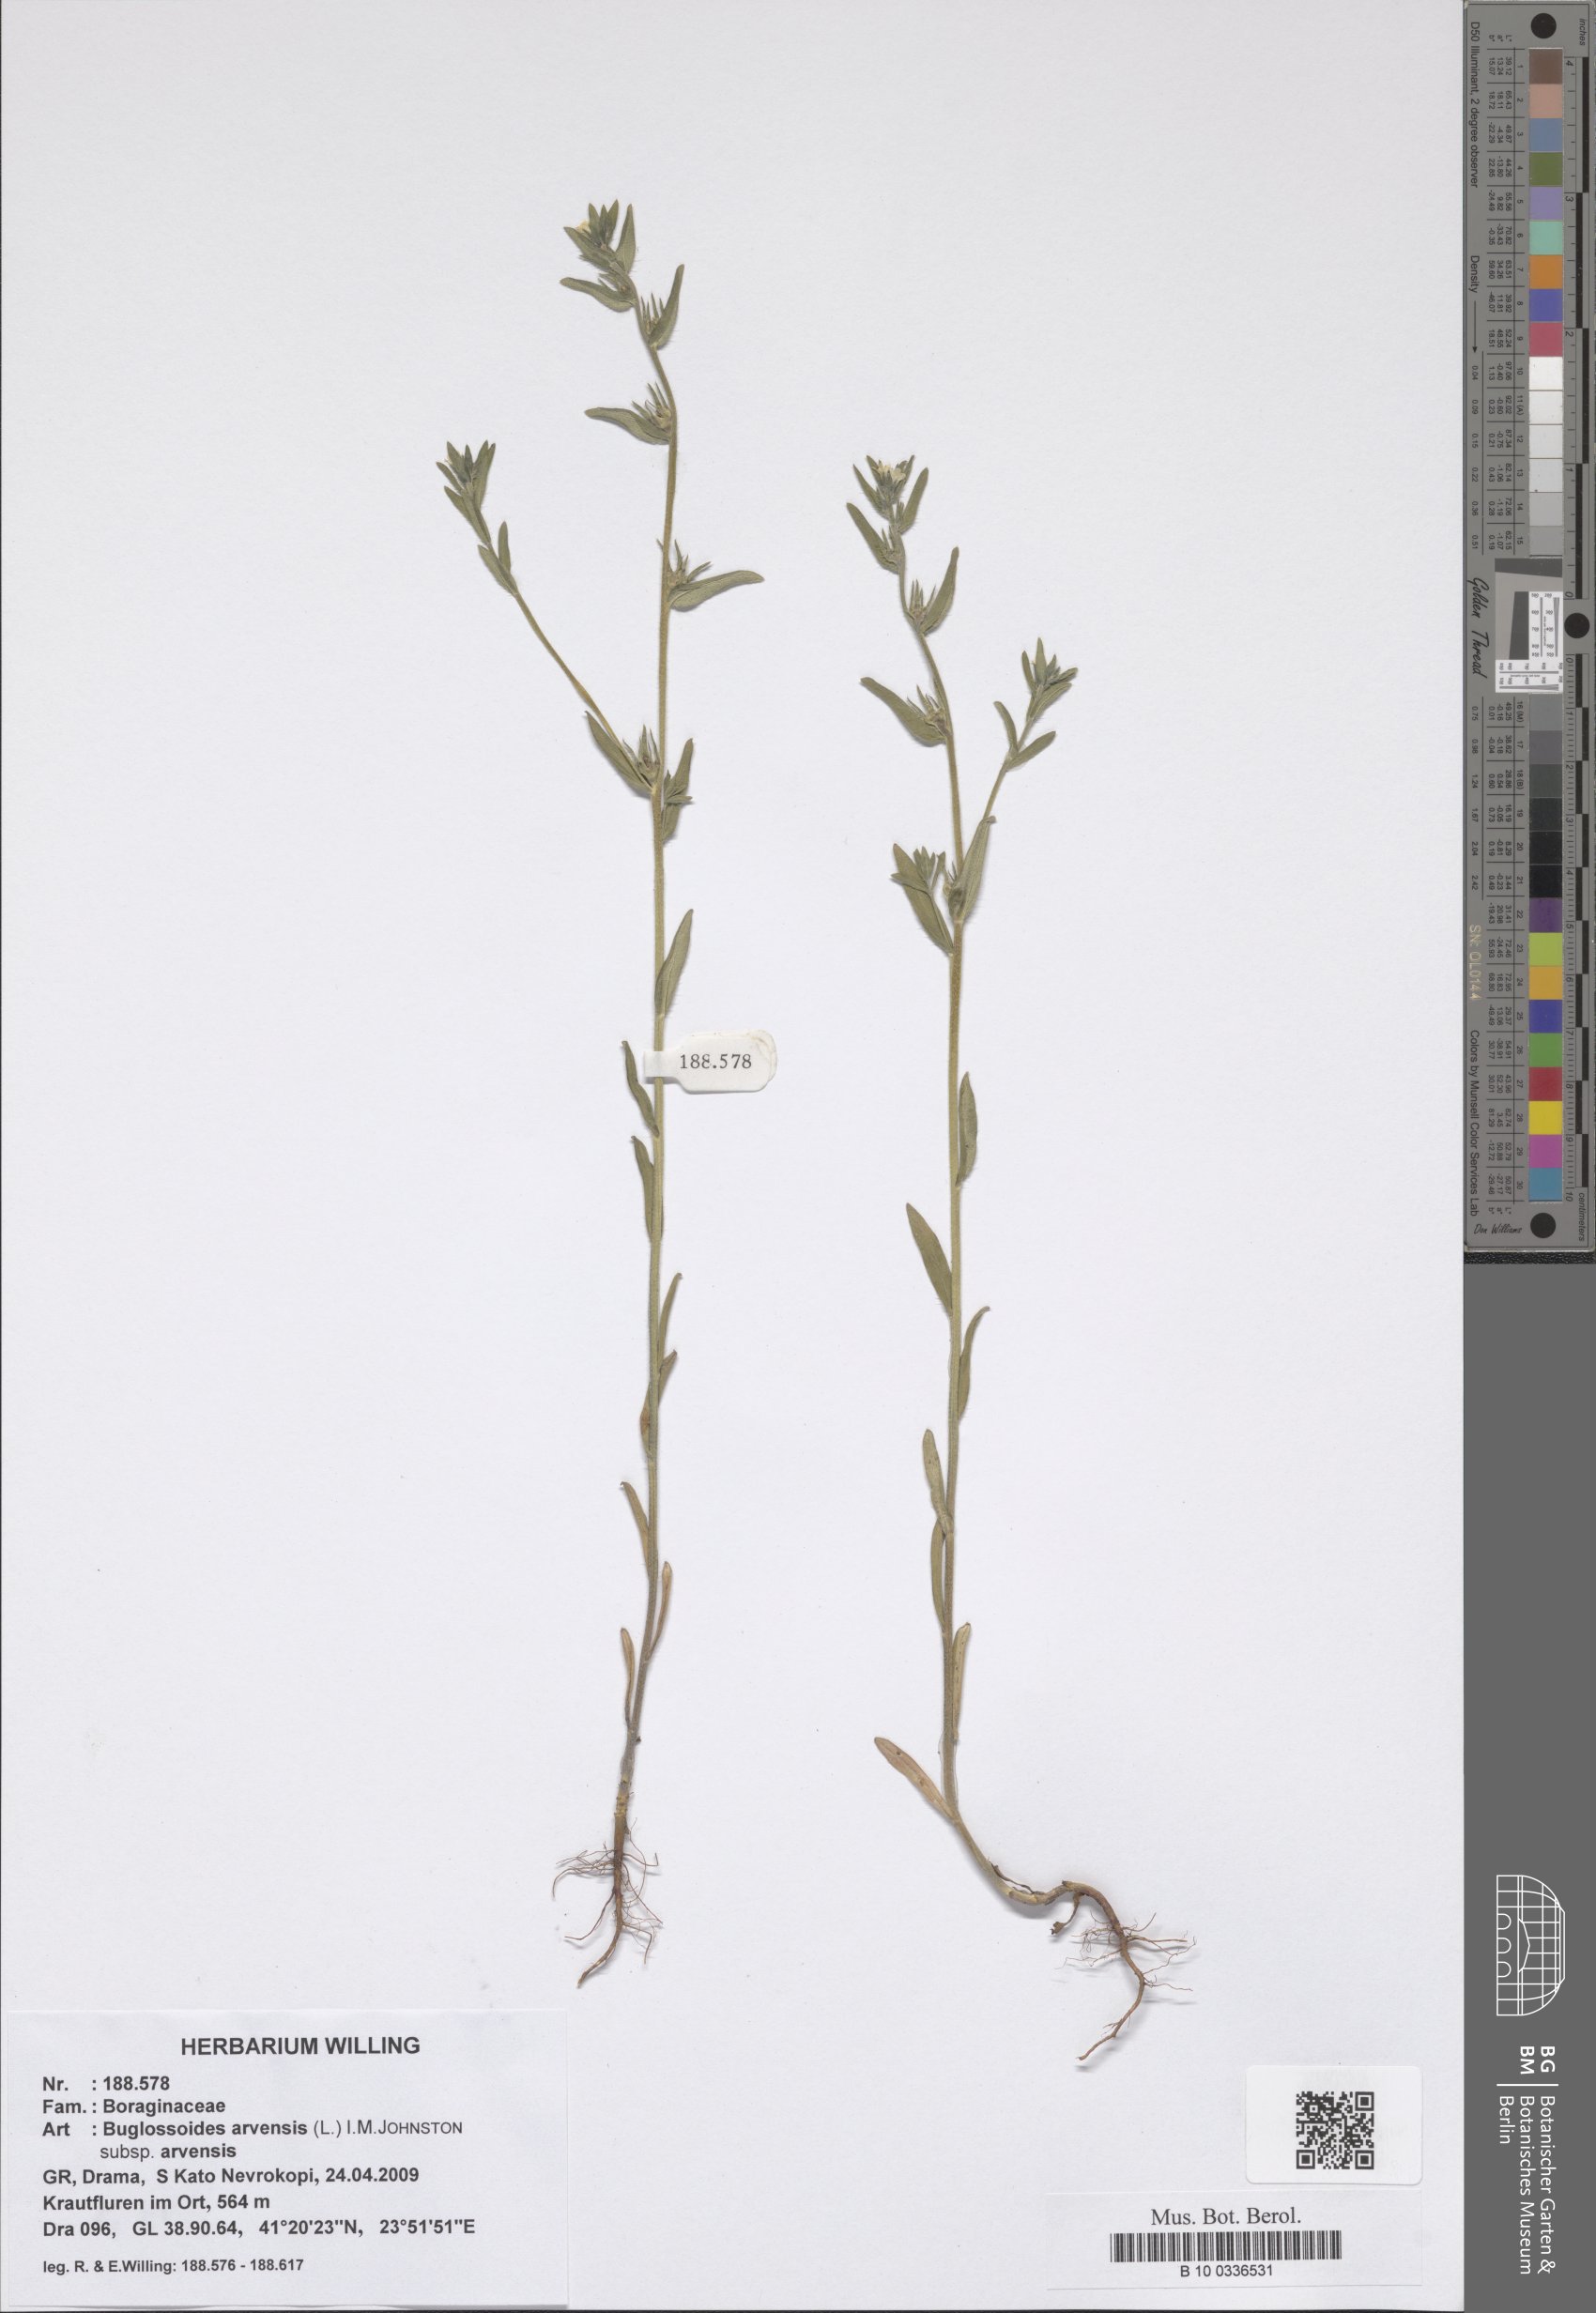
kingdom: Plantae
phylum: Tracheophyta
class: Magnoliopsida
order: Boraginales
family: Boraginaceae
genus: Buglossoides
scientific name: Buglossoides arvensis
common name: Corn gromwell
